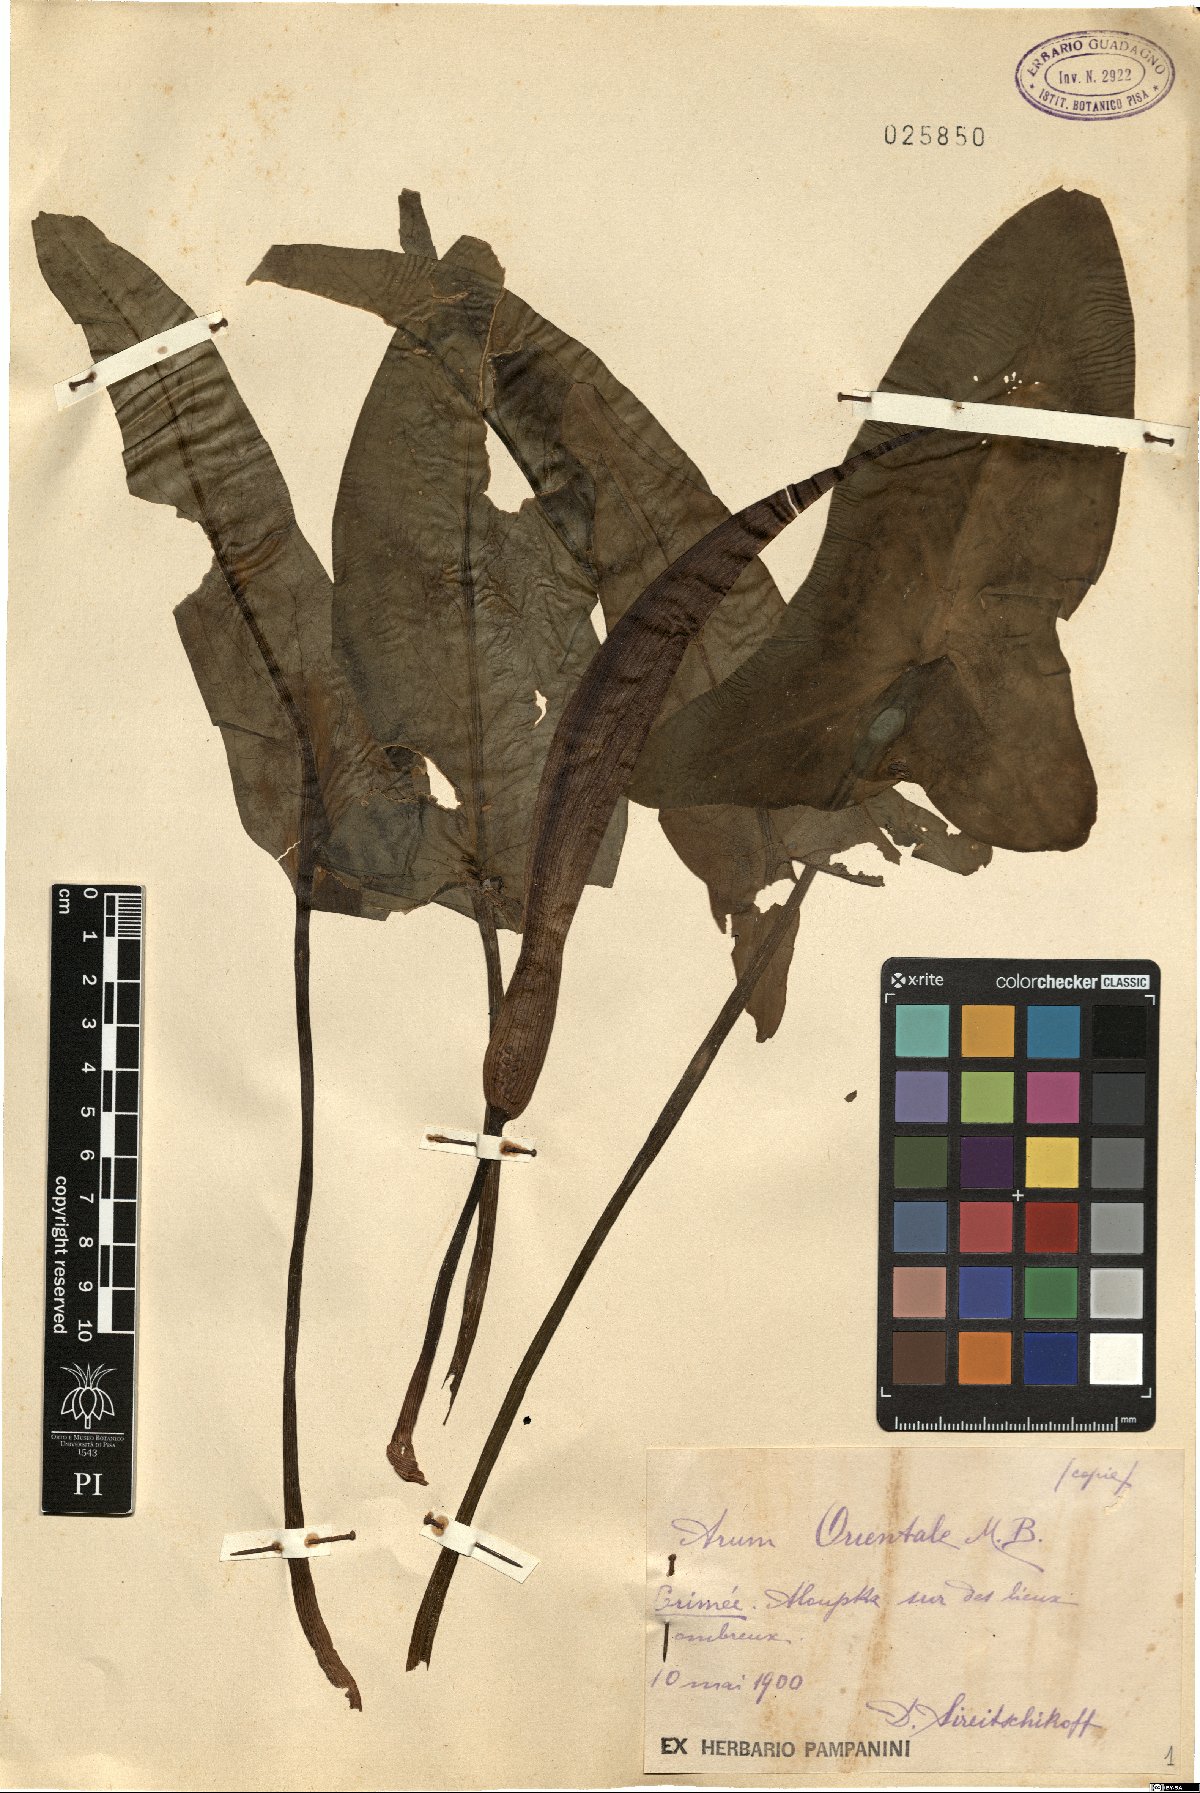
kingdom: Plantae
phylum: Tracheophyta
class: Liliopsida
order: Alismatales
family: Araceae
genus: Arum
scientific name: Arum orientale
